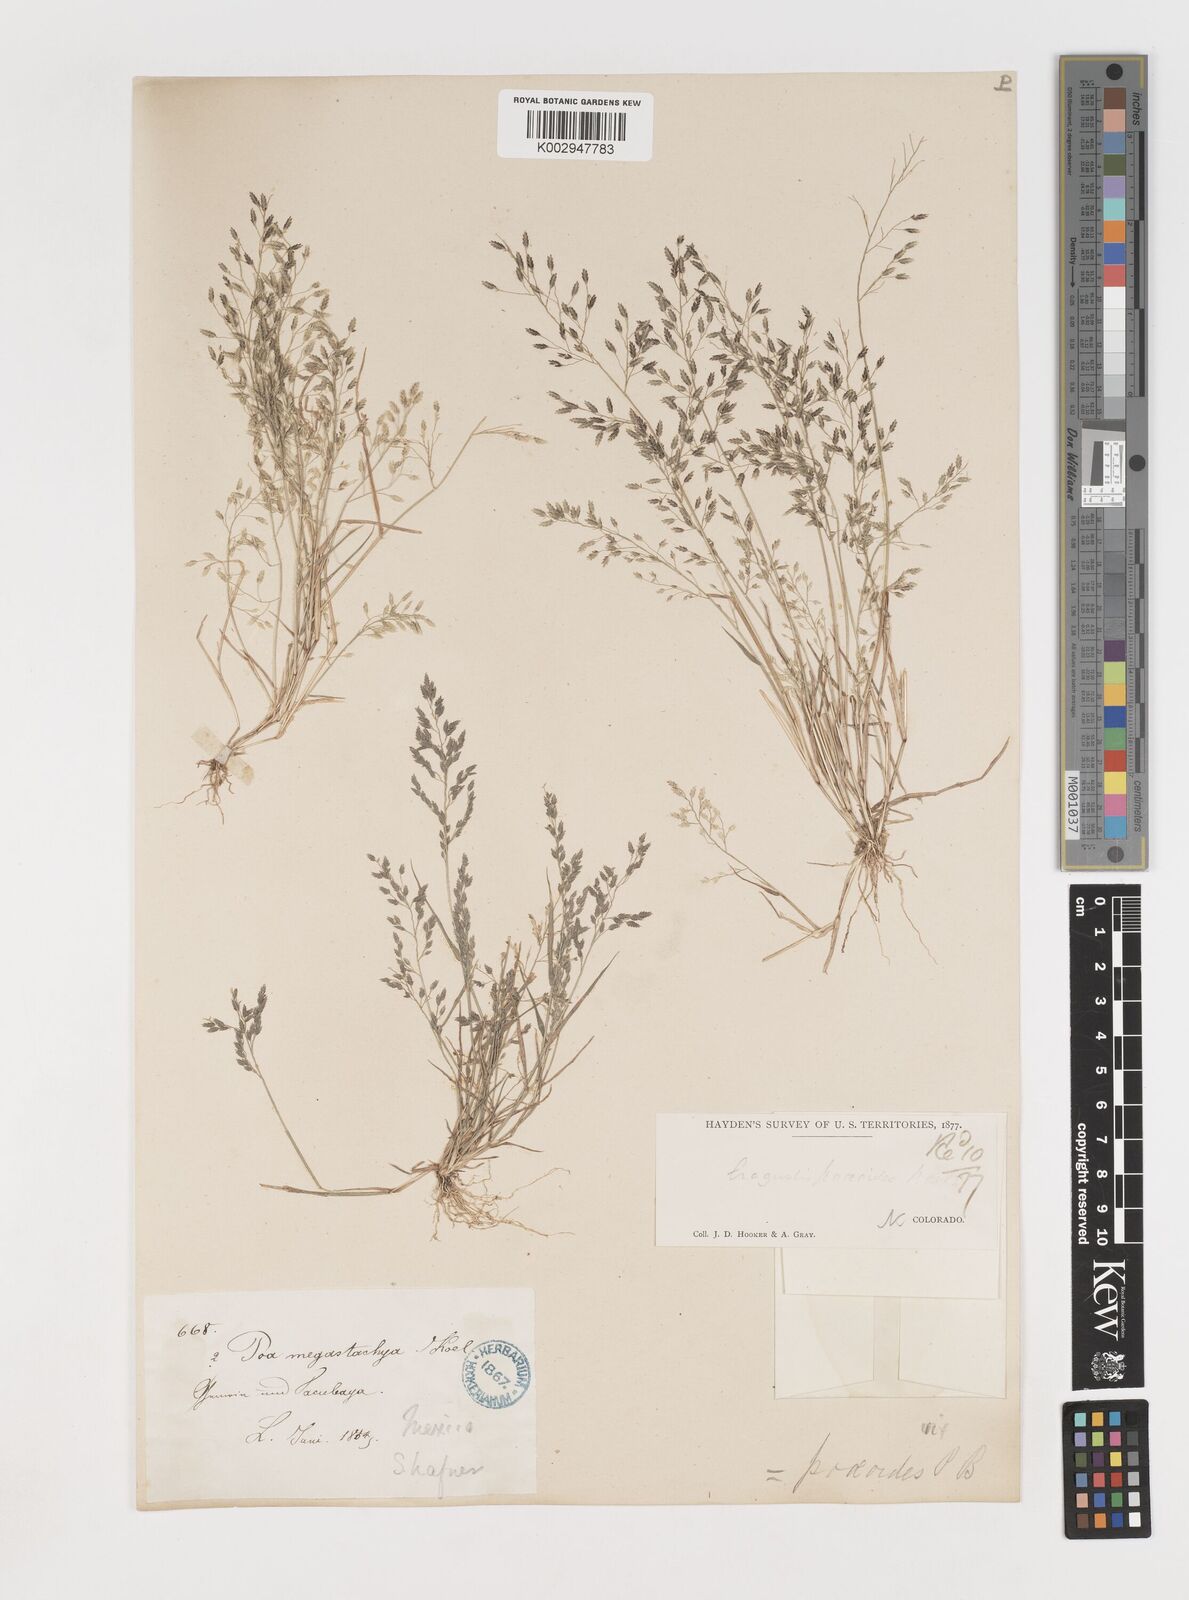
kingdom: Plantae
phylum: Tracheophyta
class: Liliopsida
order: Poales
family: Poaceae
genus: Eragrostis
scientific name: Eragrostis pectinacea
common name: Tufted lovegrass
